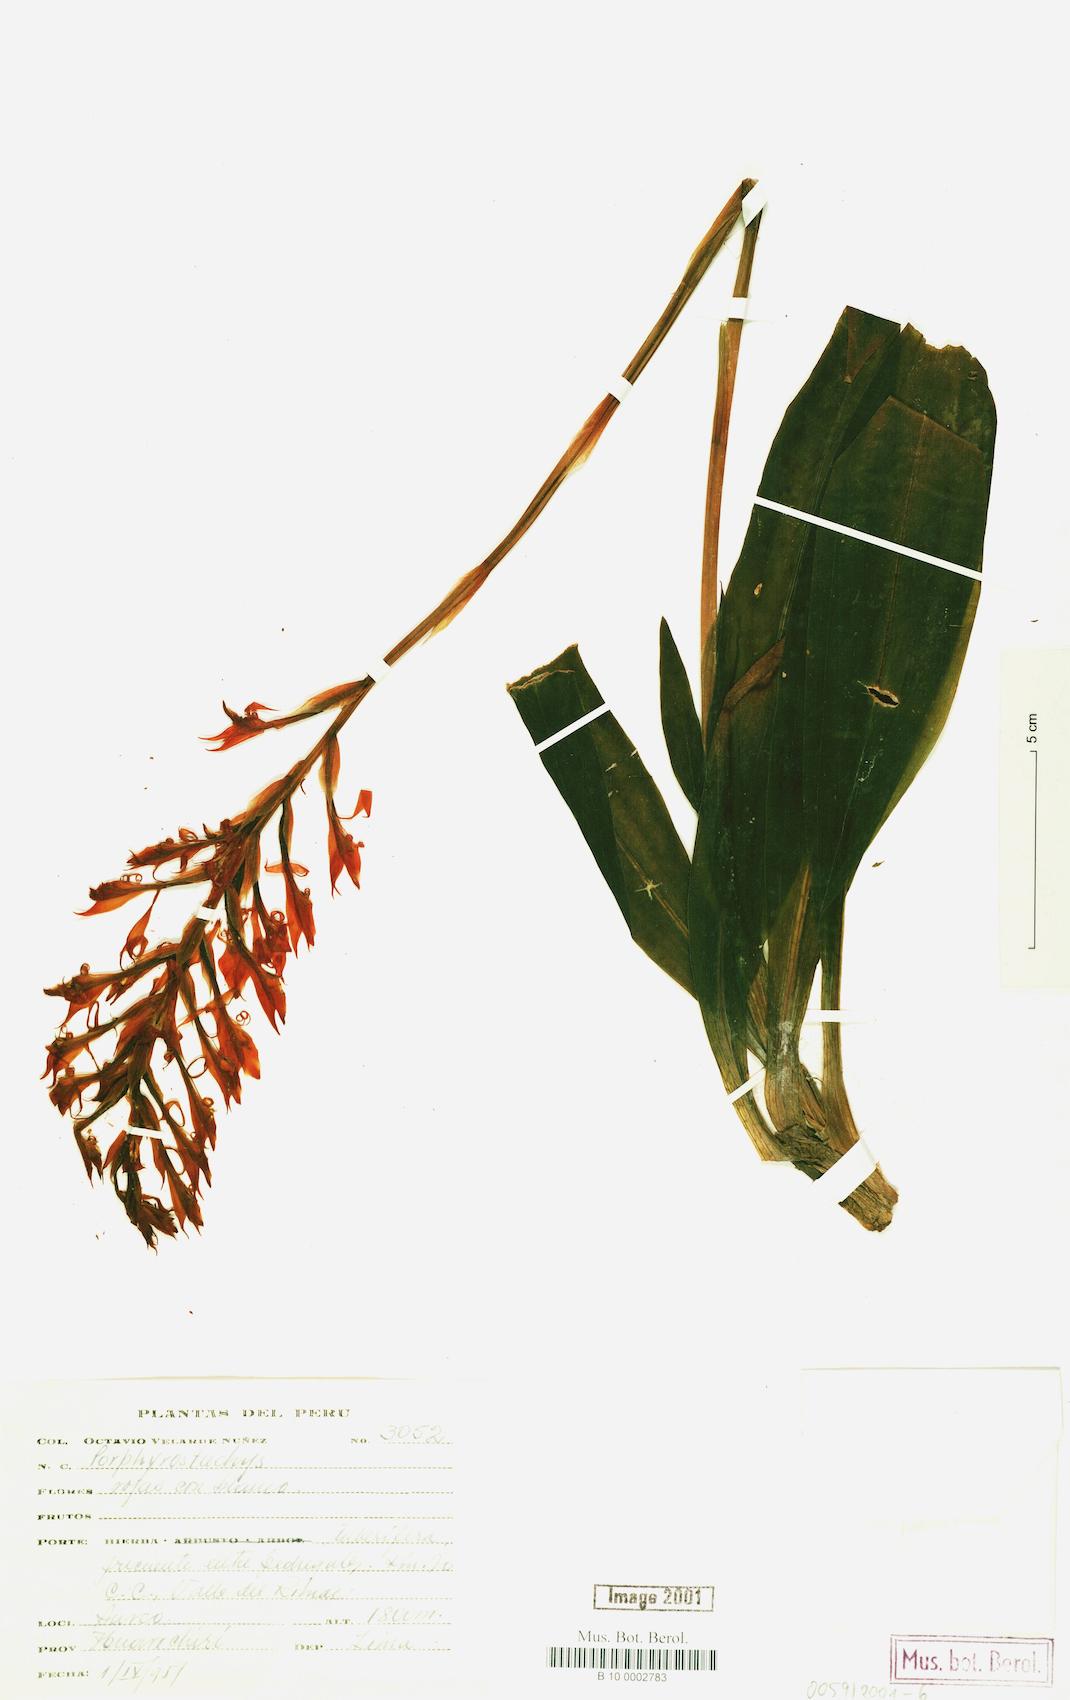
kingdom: Plantae
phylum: Tracheophyta
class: Liliopsida
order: Asparagales
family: Orchidaceae
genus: Porphyrostachys
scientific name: Porphyrostachys
